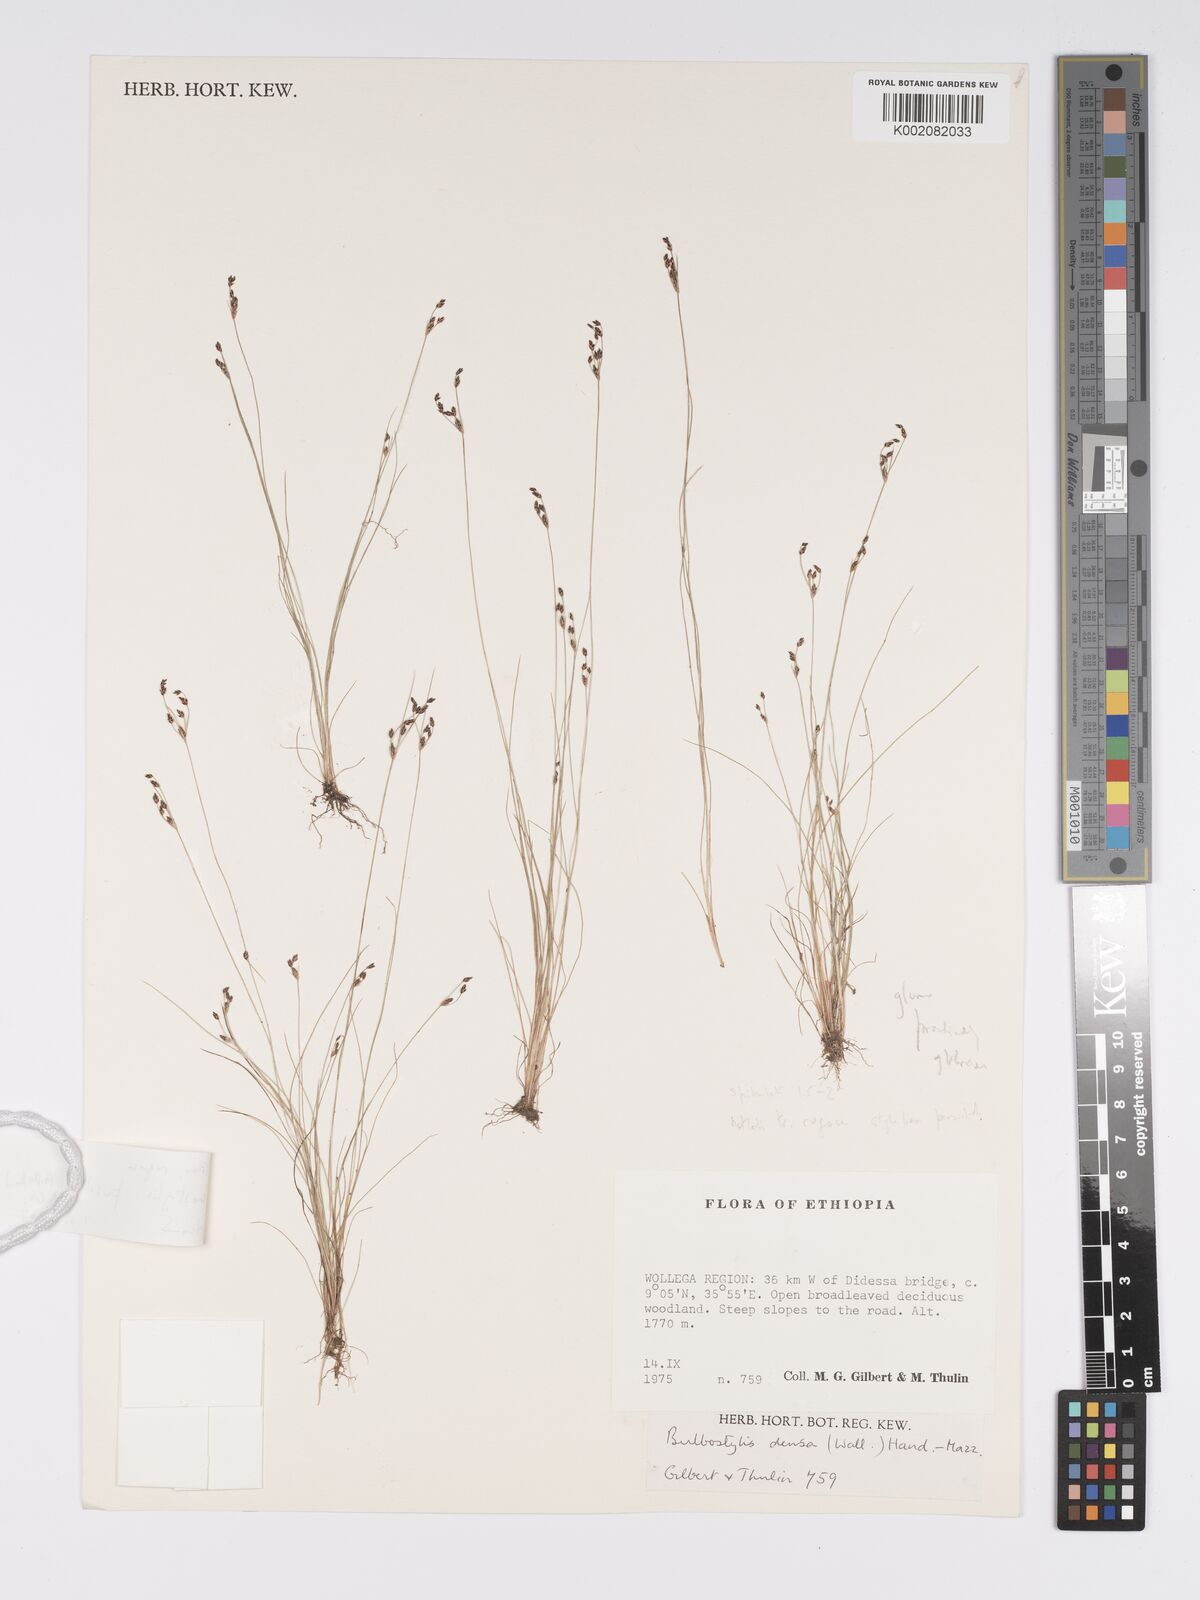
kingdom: Plantae
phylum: Tracheophyta
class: Liliopsida
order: Poales
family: Cyperaceae
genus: Bulbostylis
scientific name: Bulbostylis pusilla
